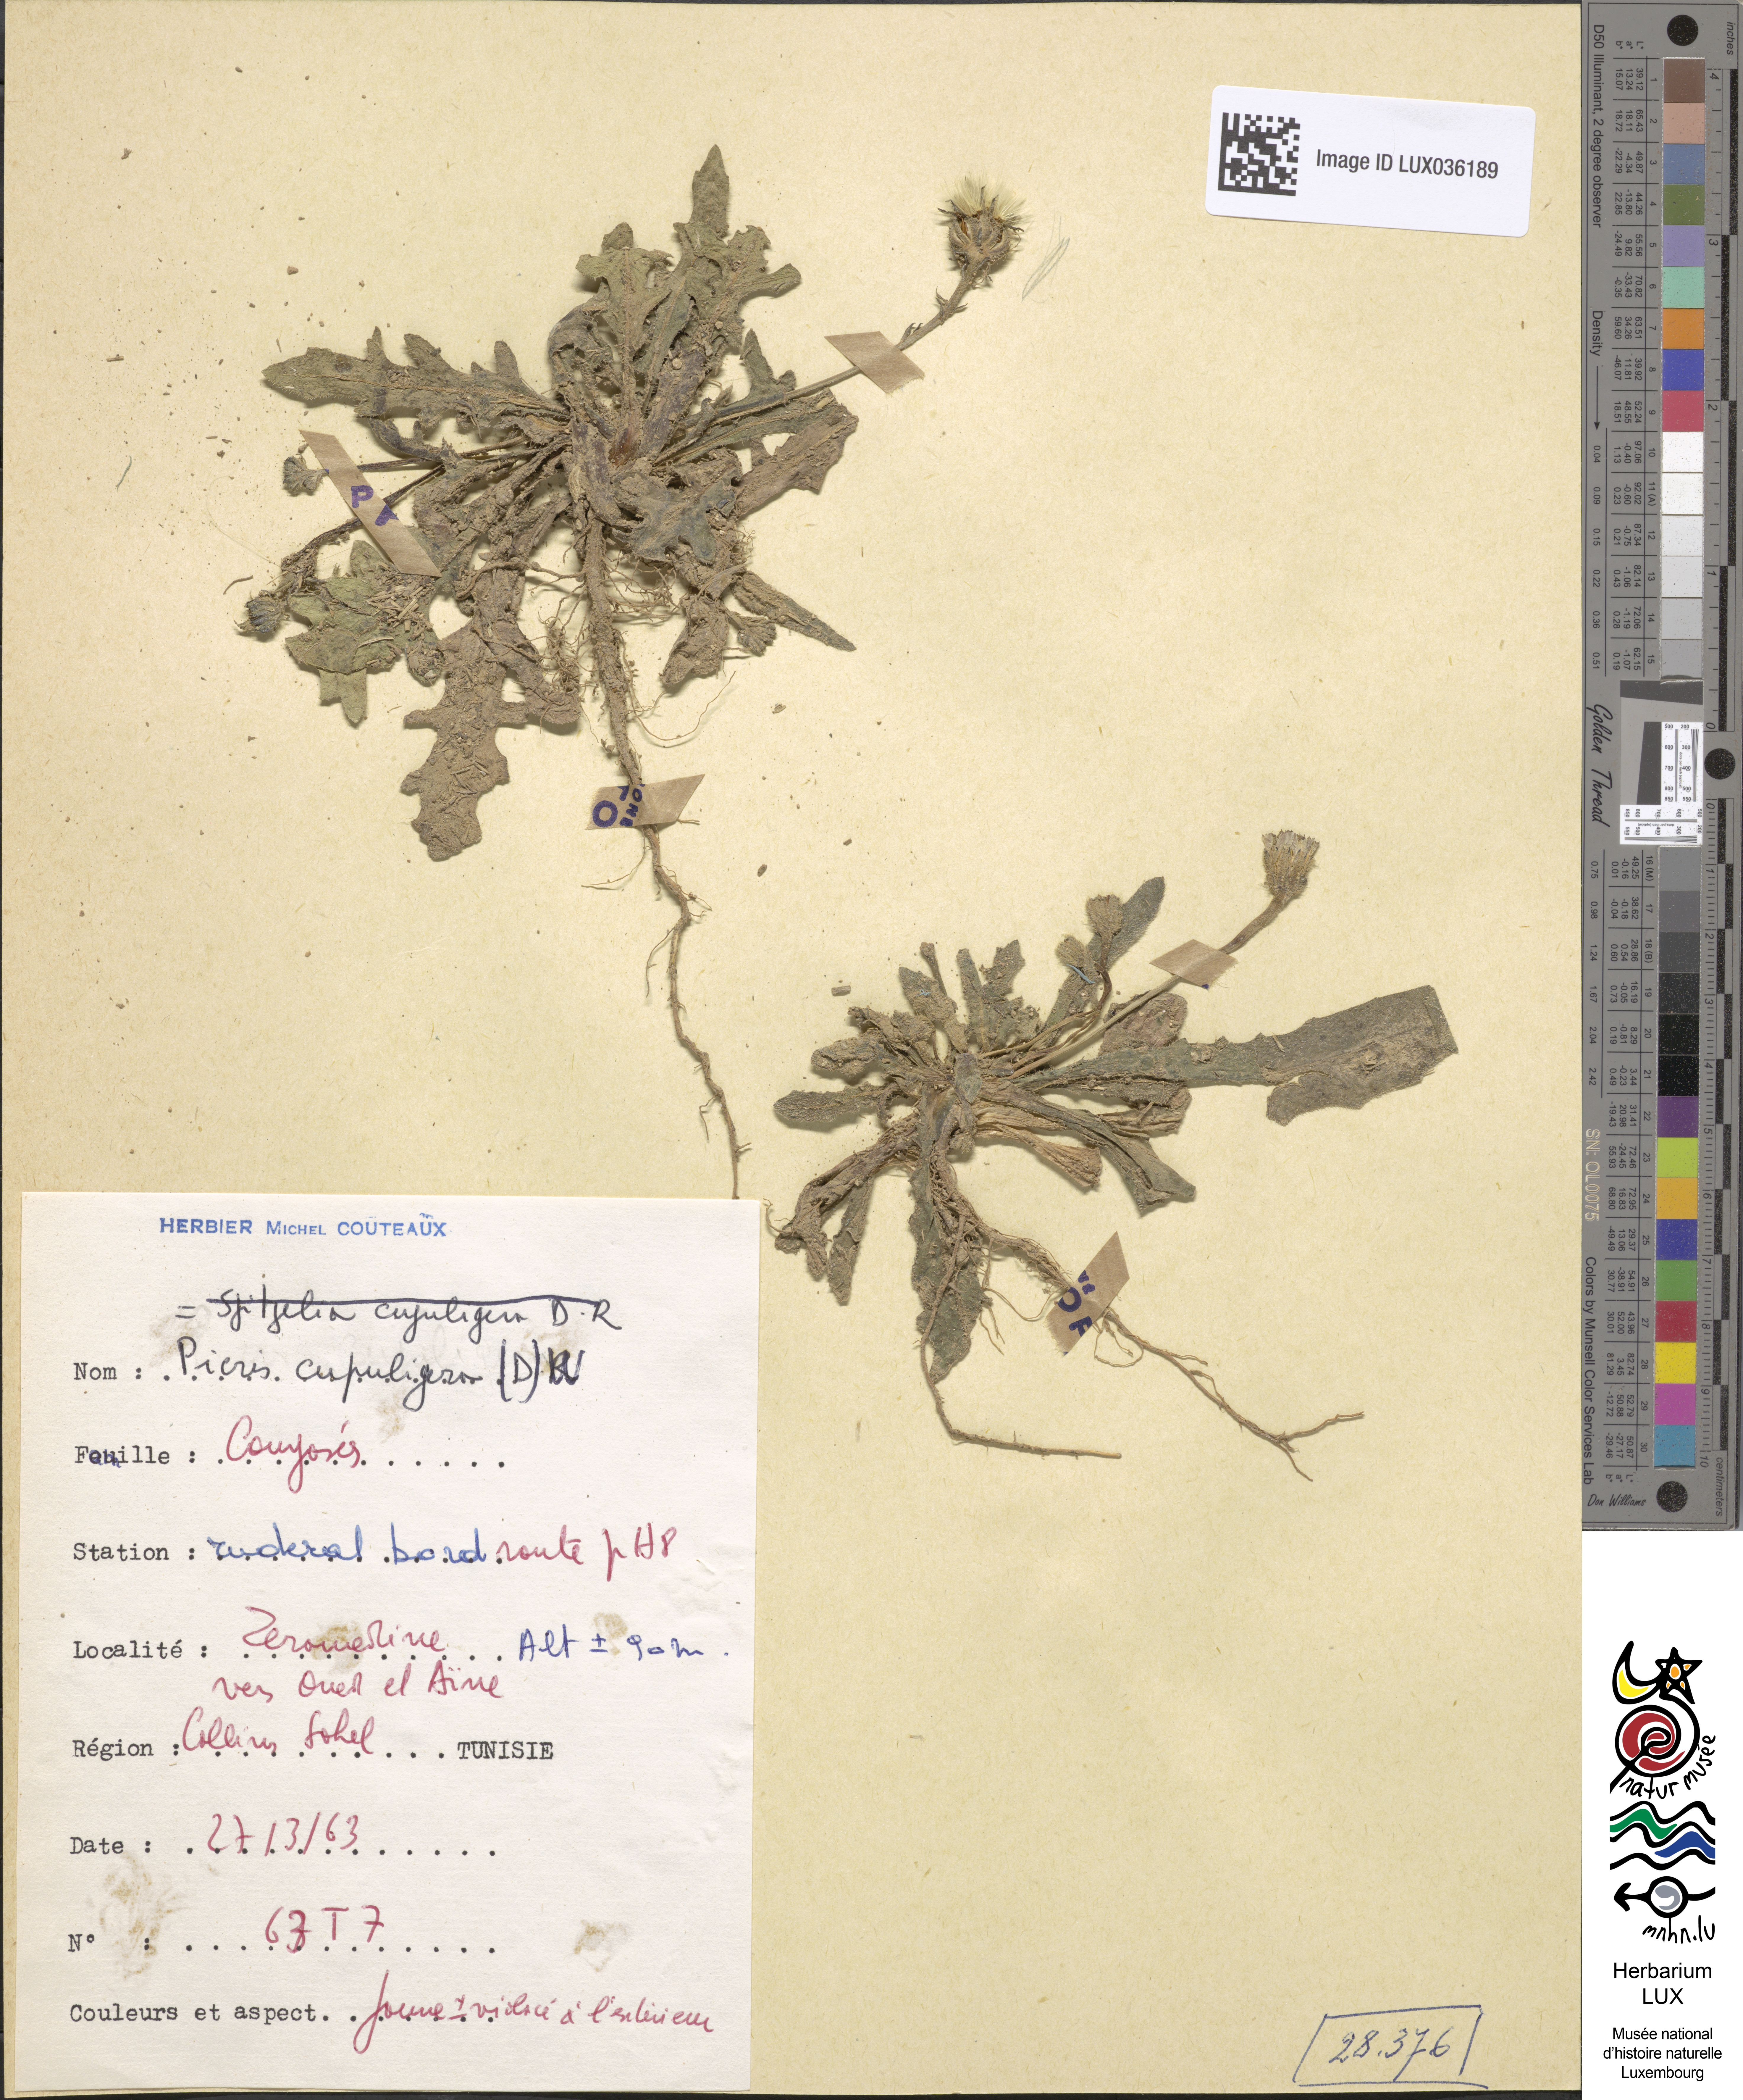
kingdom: Plantae
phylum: Tracheophyta
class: Magnoliopsida
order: Asterales
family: Asteraceae
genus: Picris
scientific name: Picris cupuligera
